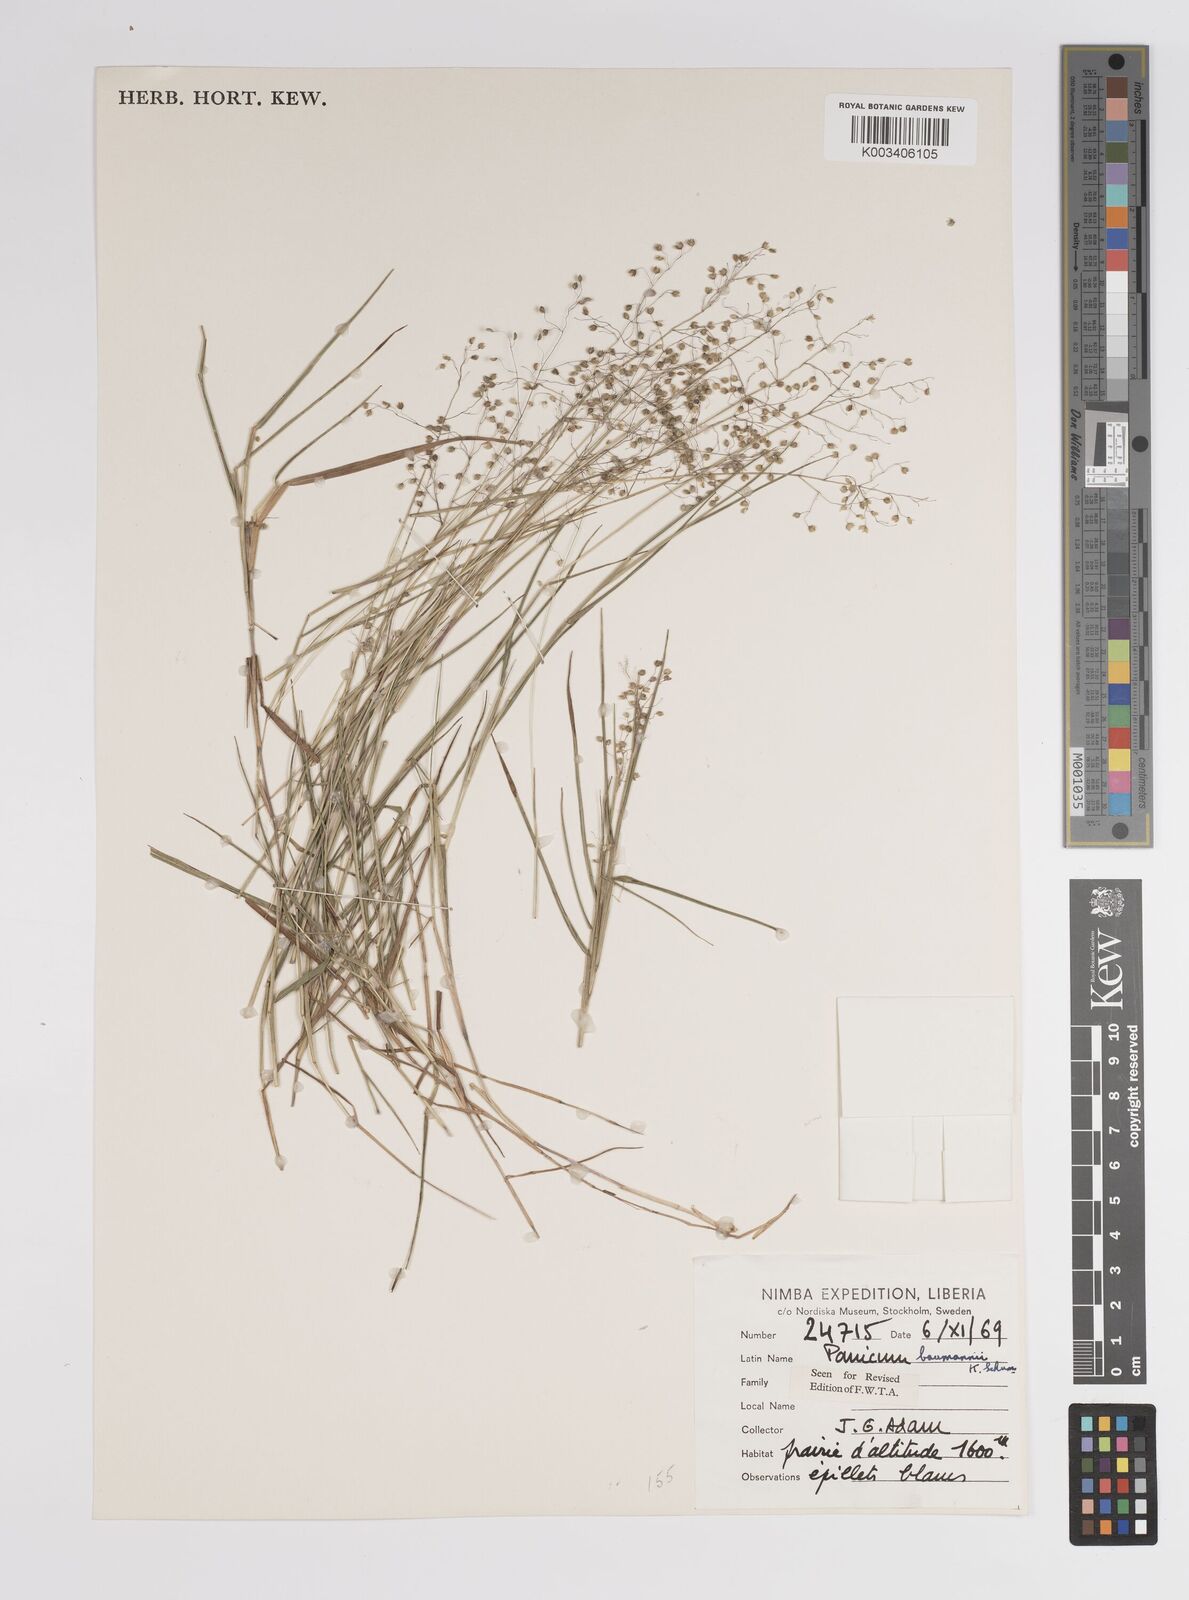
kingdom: Plantae
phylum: Tracheophyta
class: Liliopsida
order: Poales
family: Poaceae
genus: Trichanthecium
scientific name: Trichanthecium nervatum
